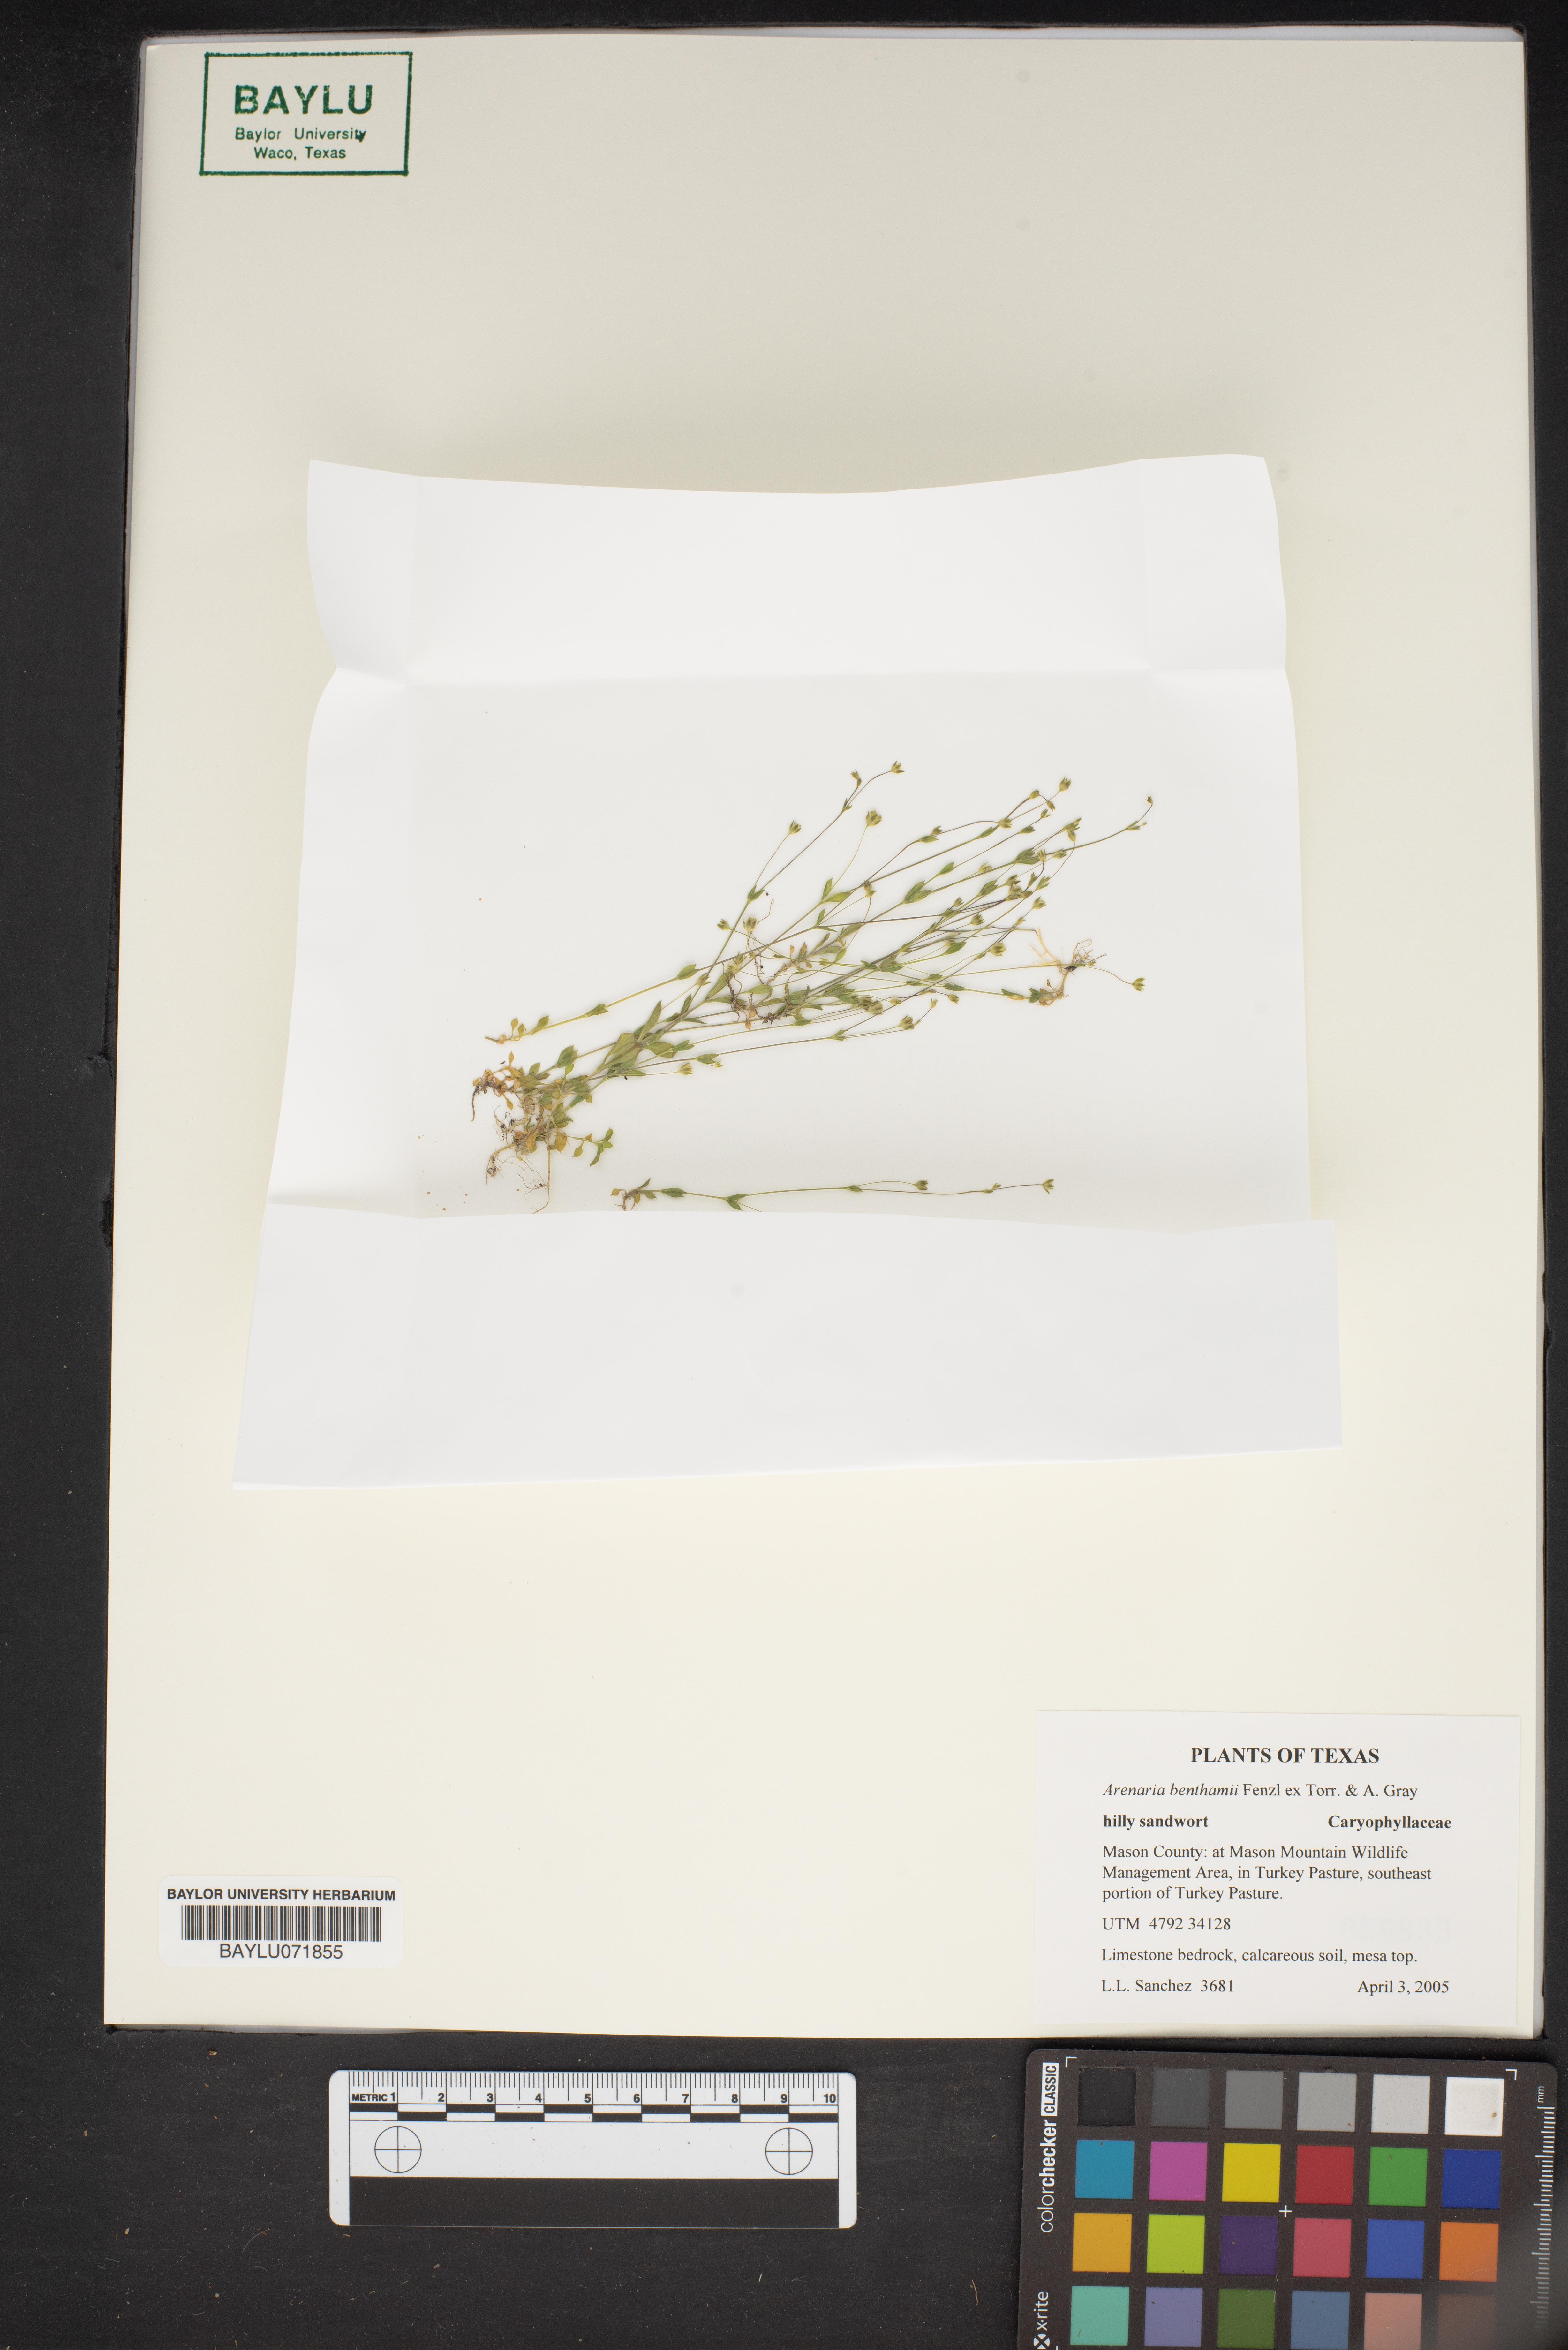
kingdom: Plantae
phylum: Tracheophyta
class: Magnoliopsida
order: Caryophyllales
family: Caryophyllaceae
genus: Arenaria
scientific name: Arenaria benthamii
